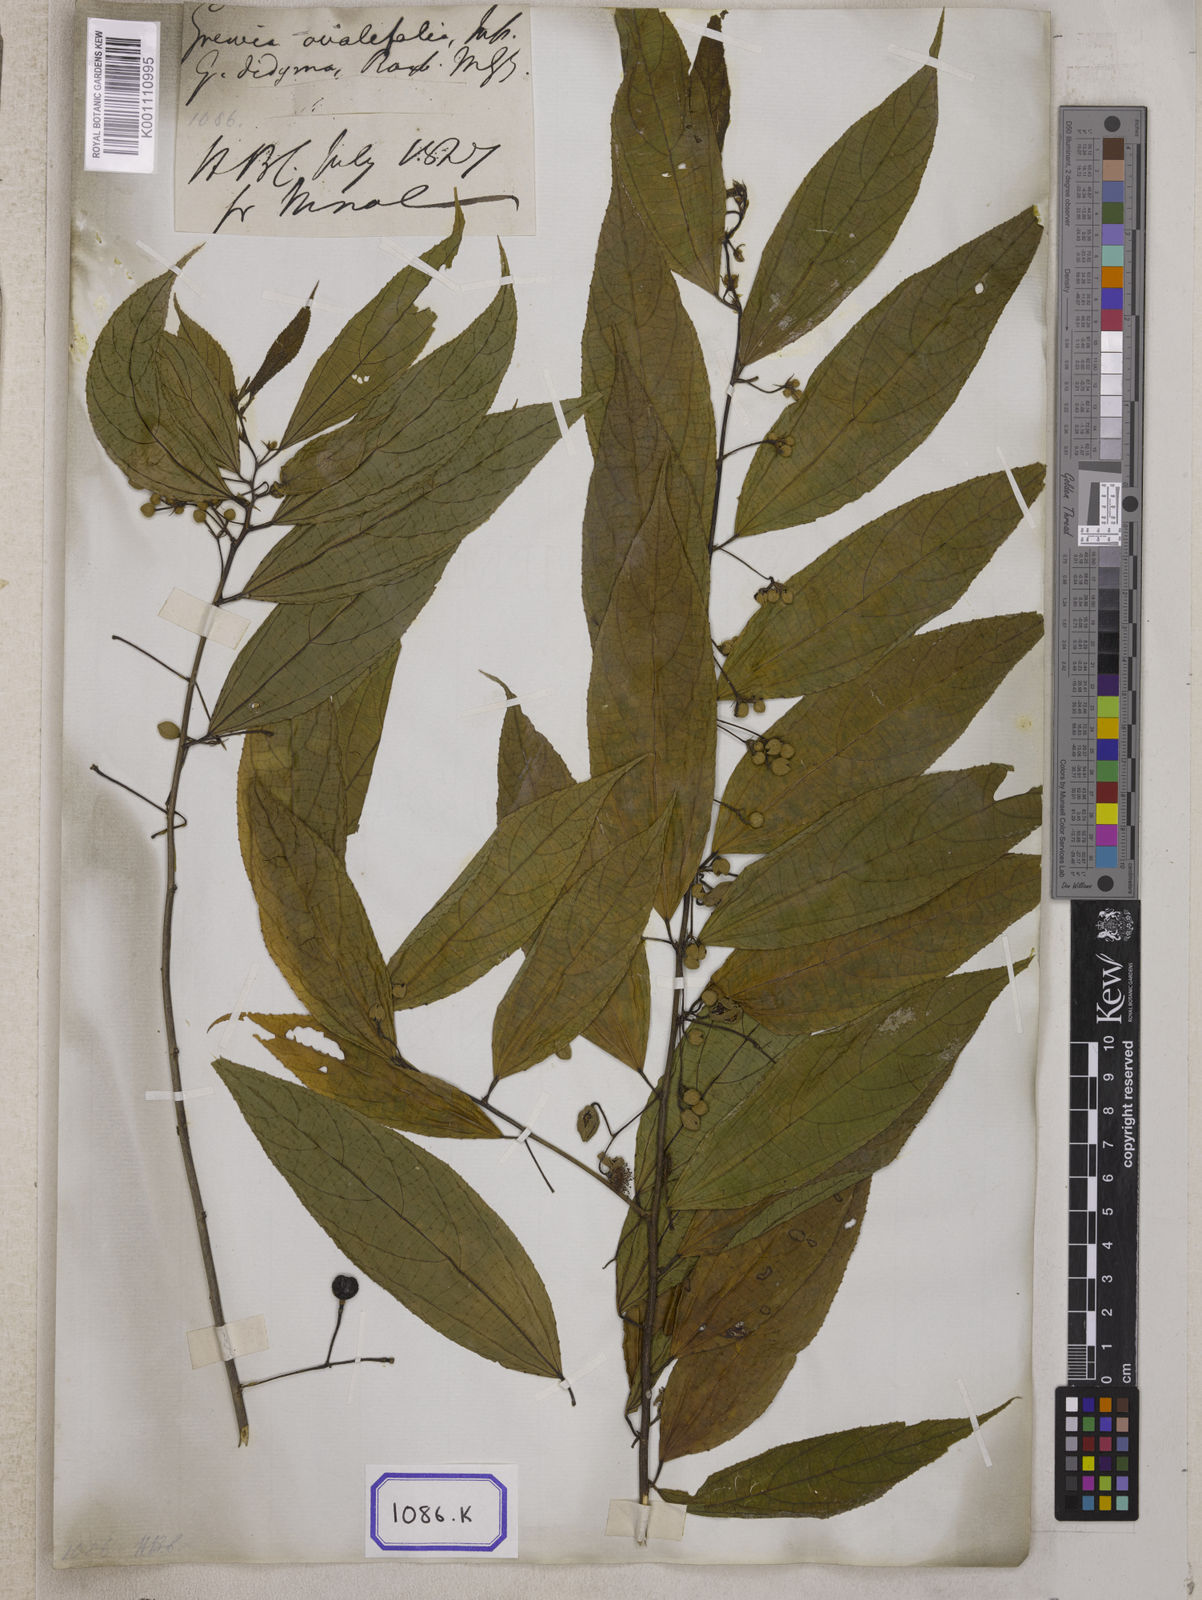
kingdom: Plantae
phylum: Tracheophyta
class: Magnoliopsida
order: Malvales
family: Malvaceae
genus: Grewia
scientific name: Grewia
